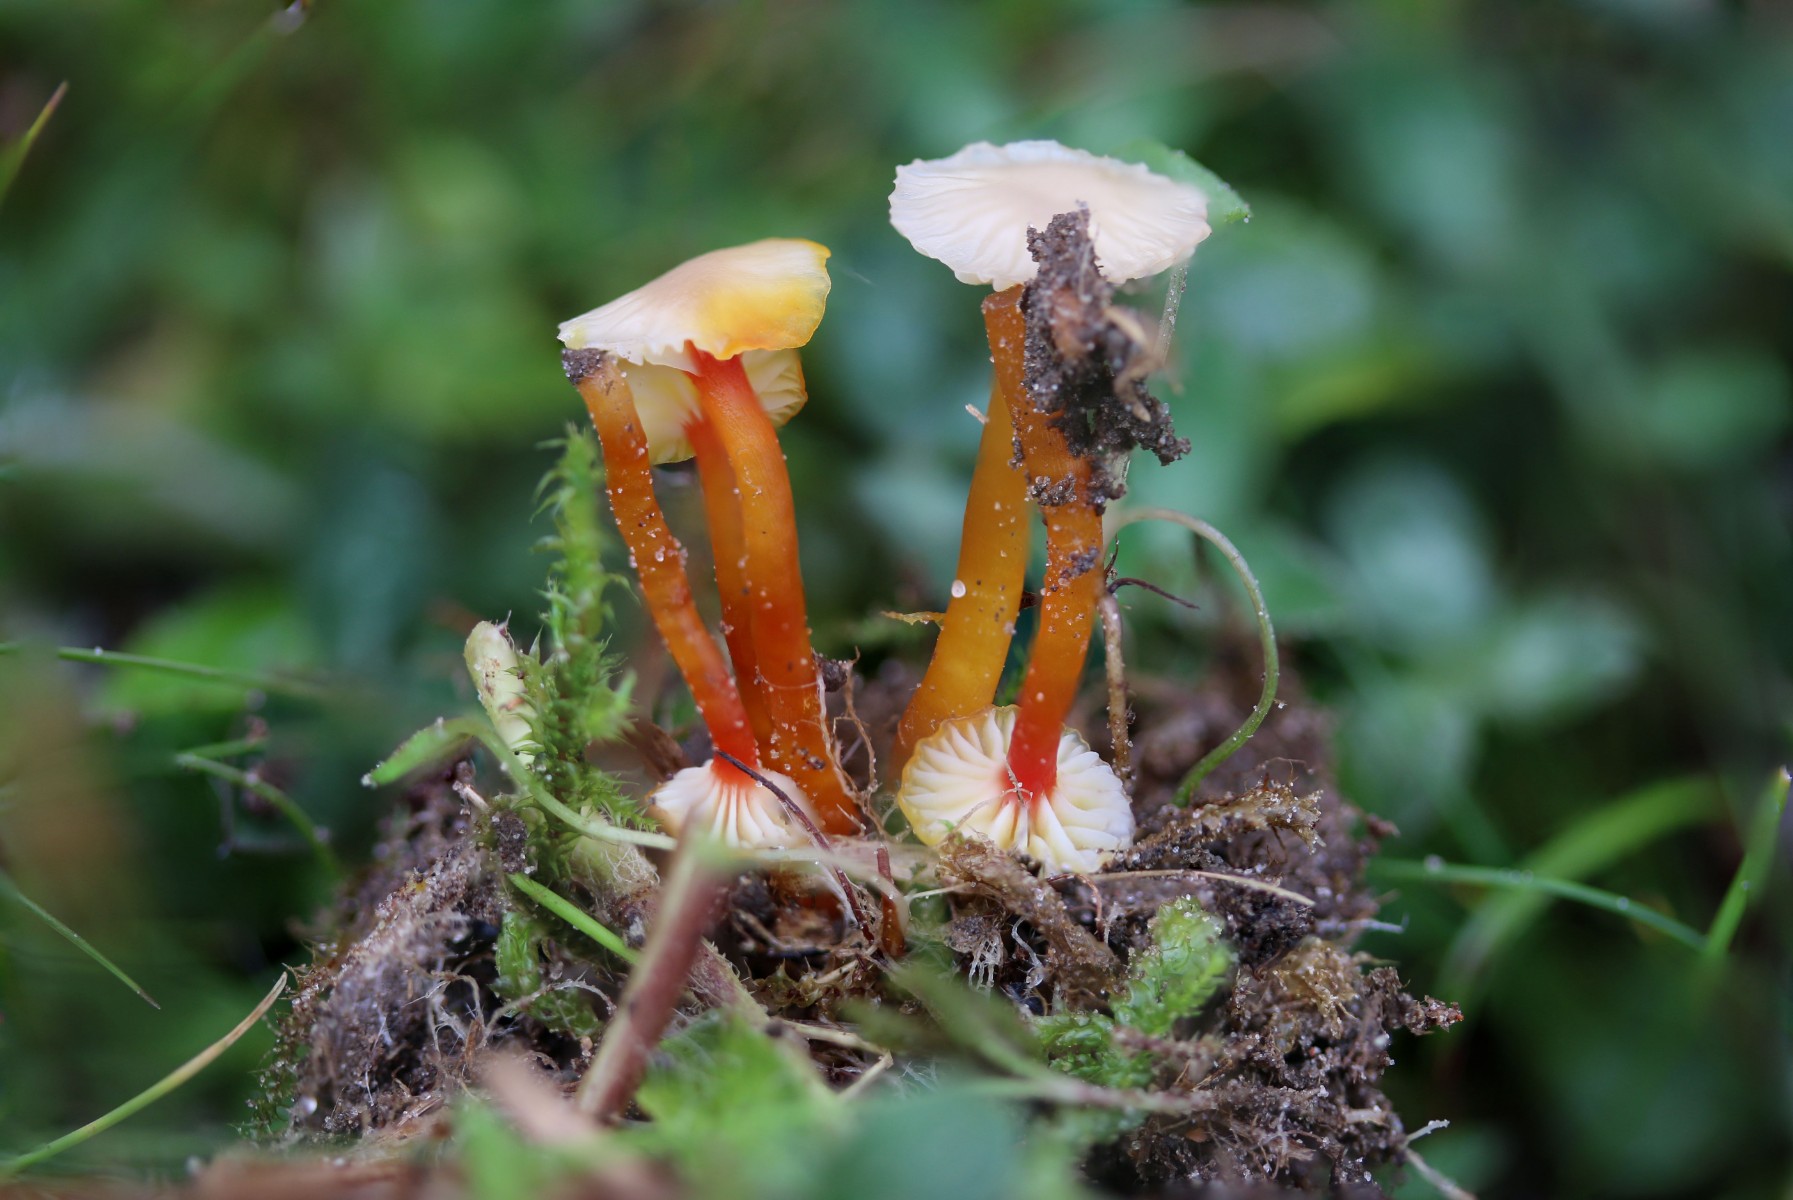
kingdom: Fungi
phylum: Basidiomycota
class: Agaricomycetes
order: Agaricales
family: Hygrophoraceae
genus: Hygrocybe
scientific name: Hygrocybe insipida
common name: liden vokshat
